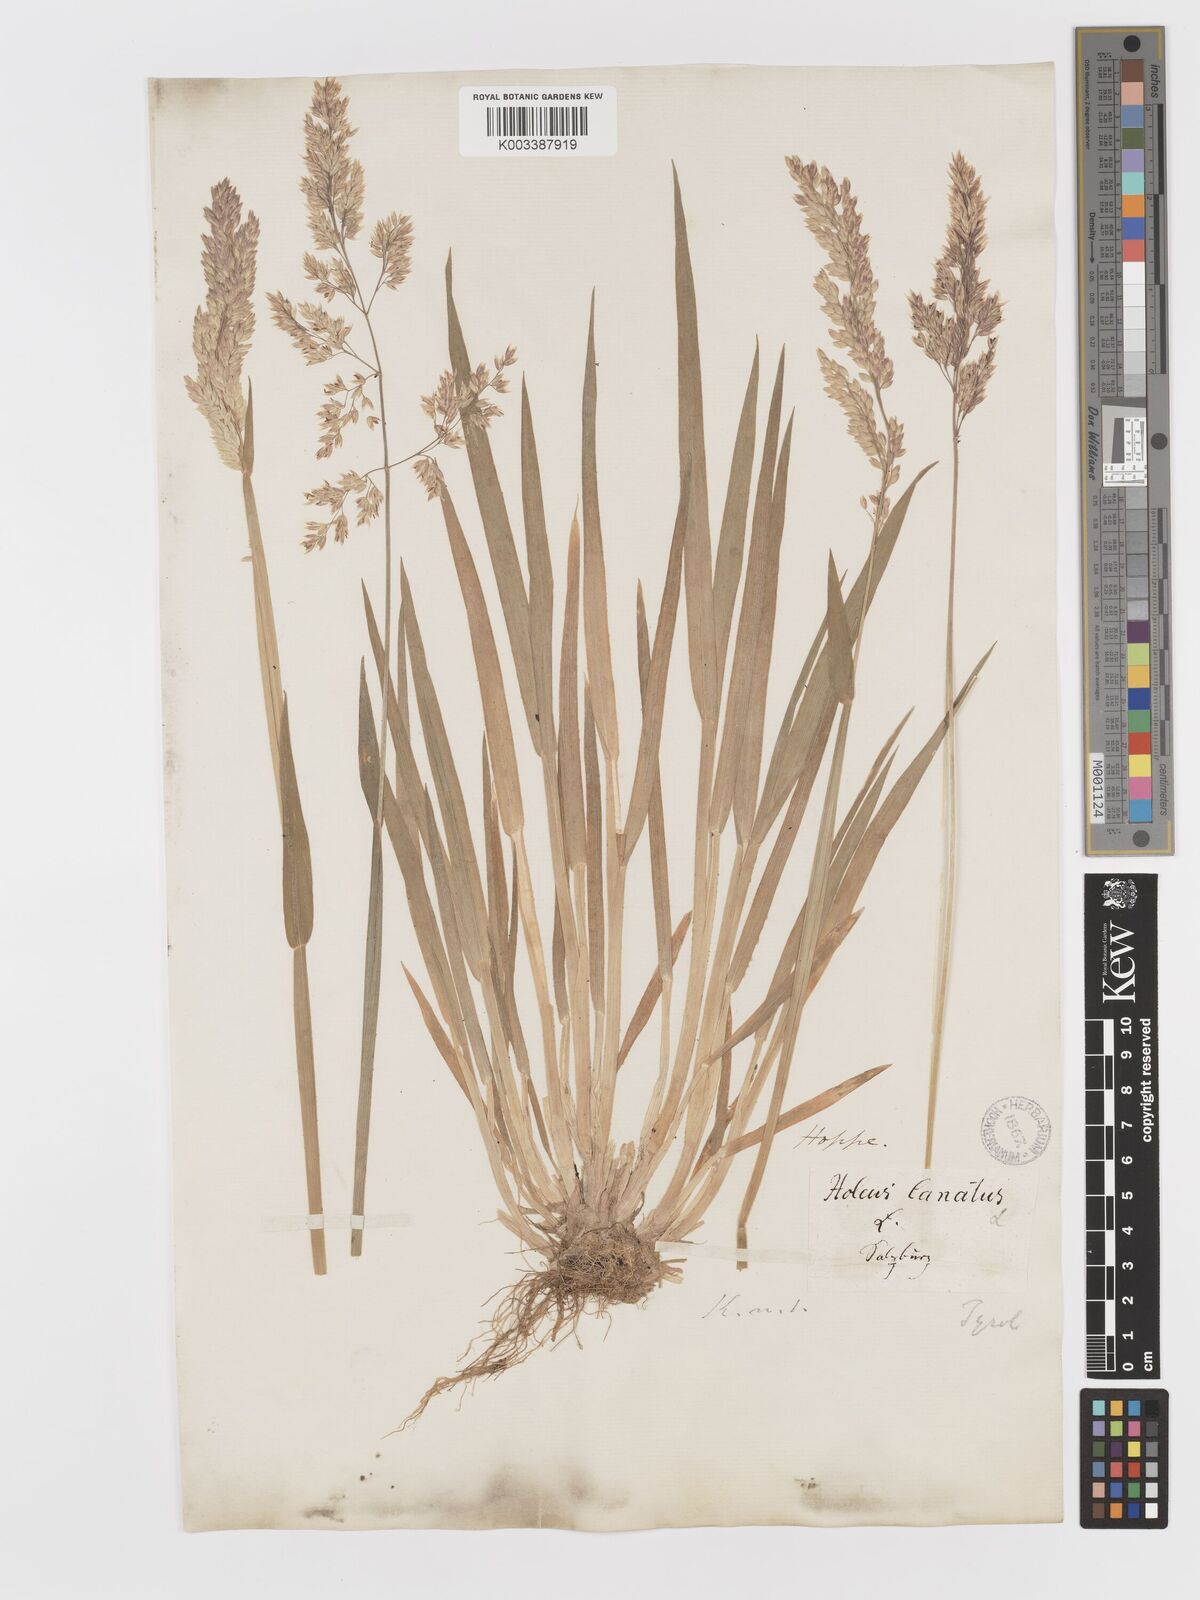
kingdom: Plantae
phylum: Tracheophyta
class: Liliopsida
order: Poales
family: Poaceae
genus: Holcus
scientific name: Holcus lanatus
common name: Yorkshire-fog
